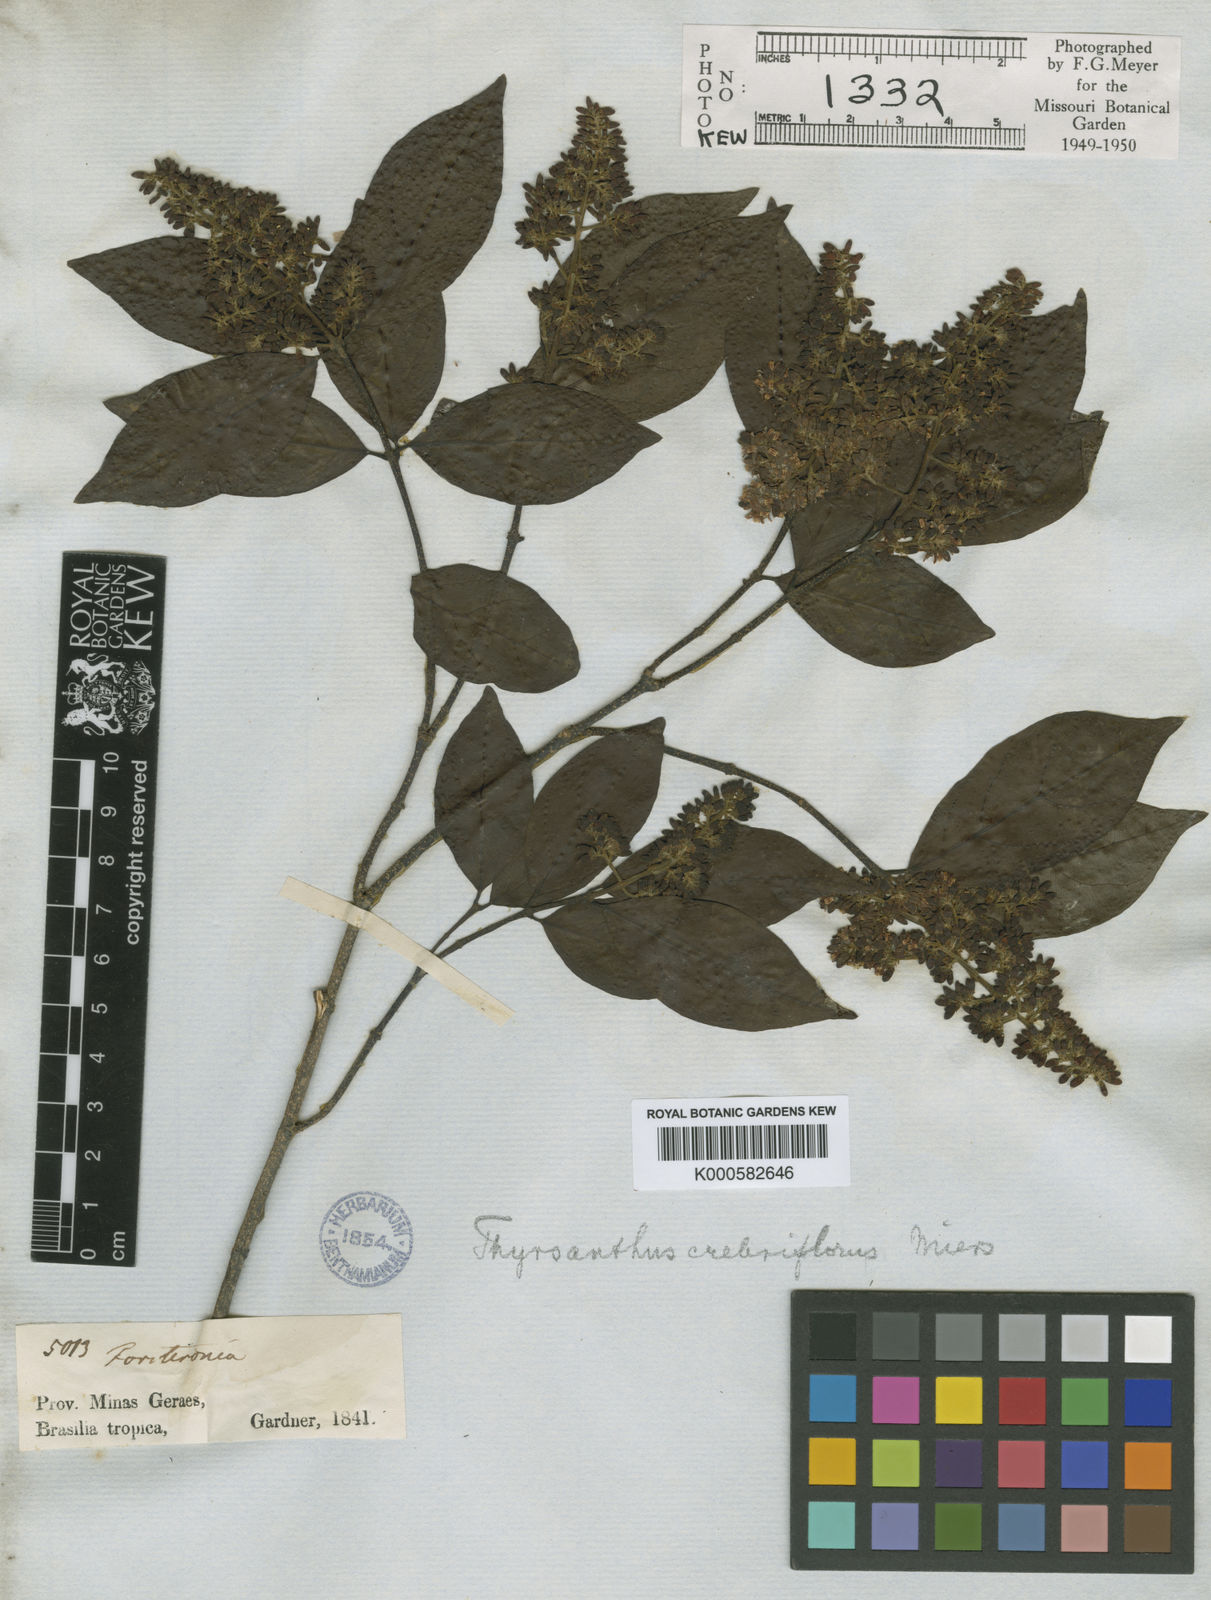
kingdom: Plantae
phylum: Tracheophyta
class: Magnoliopsida
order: Gentianales
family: Apocynaceae
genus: Forsteronia
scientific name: Forsteronia
